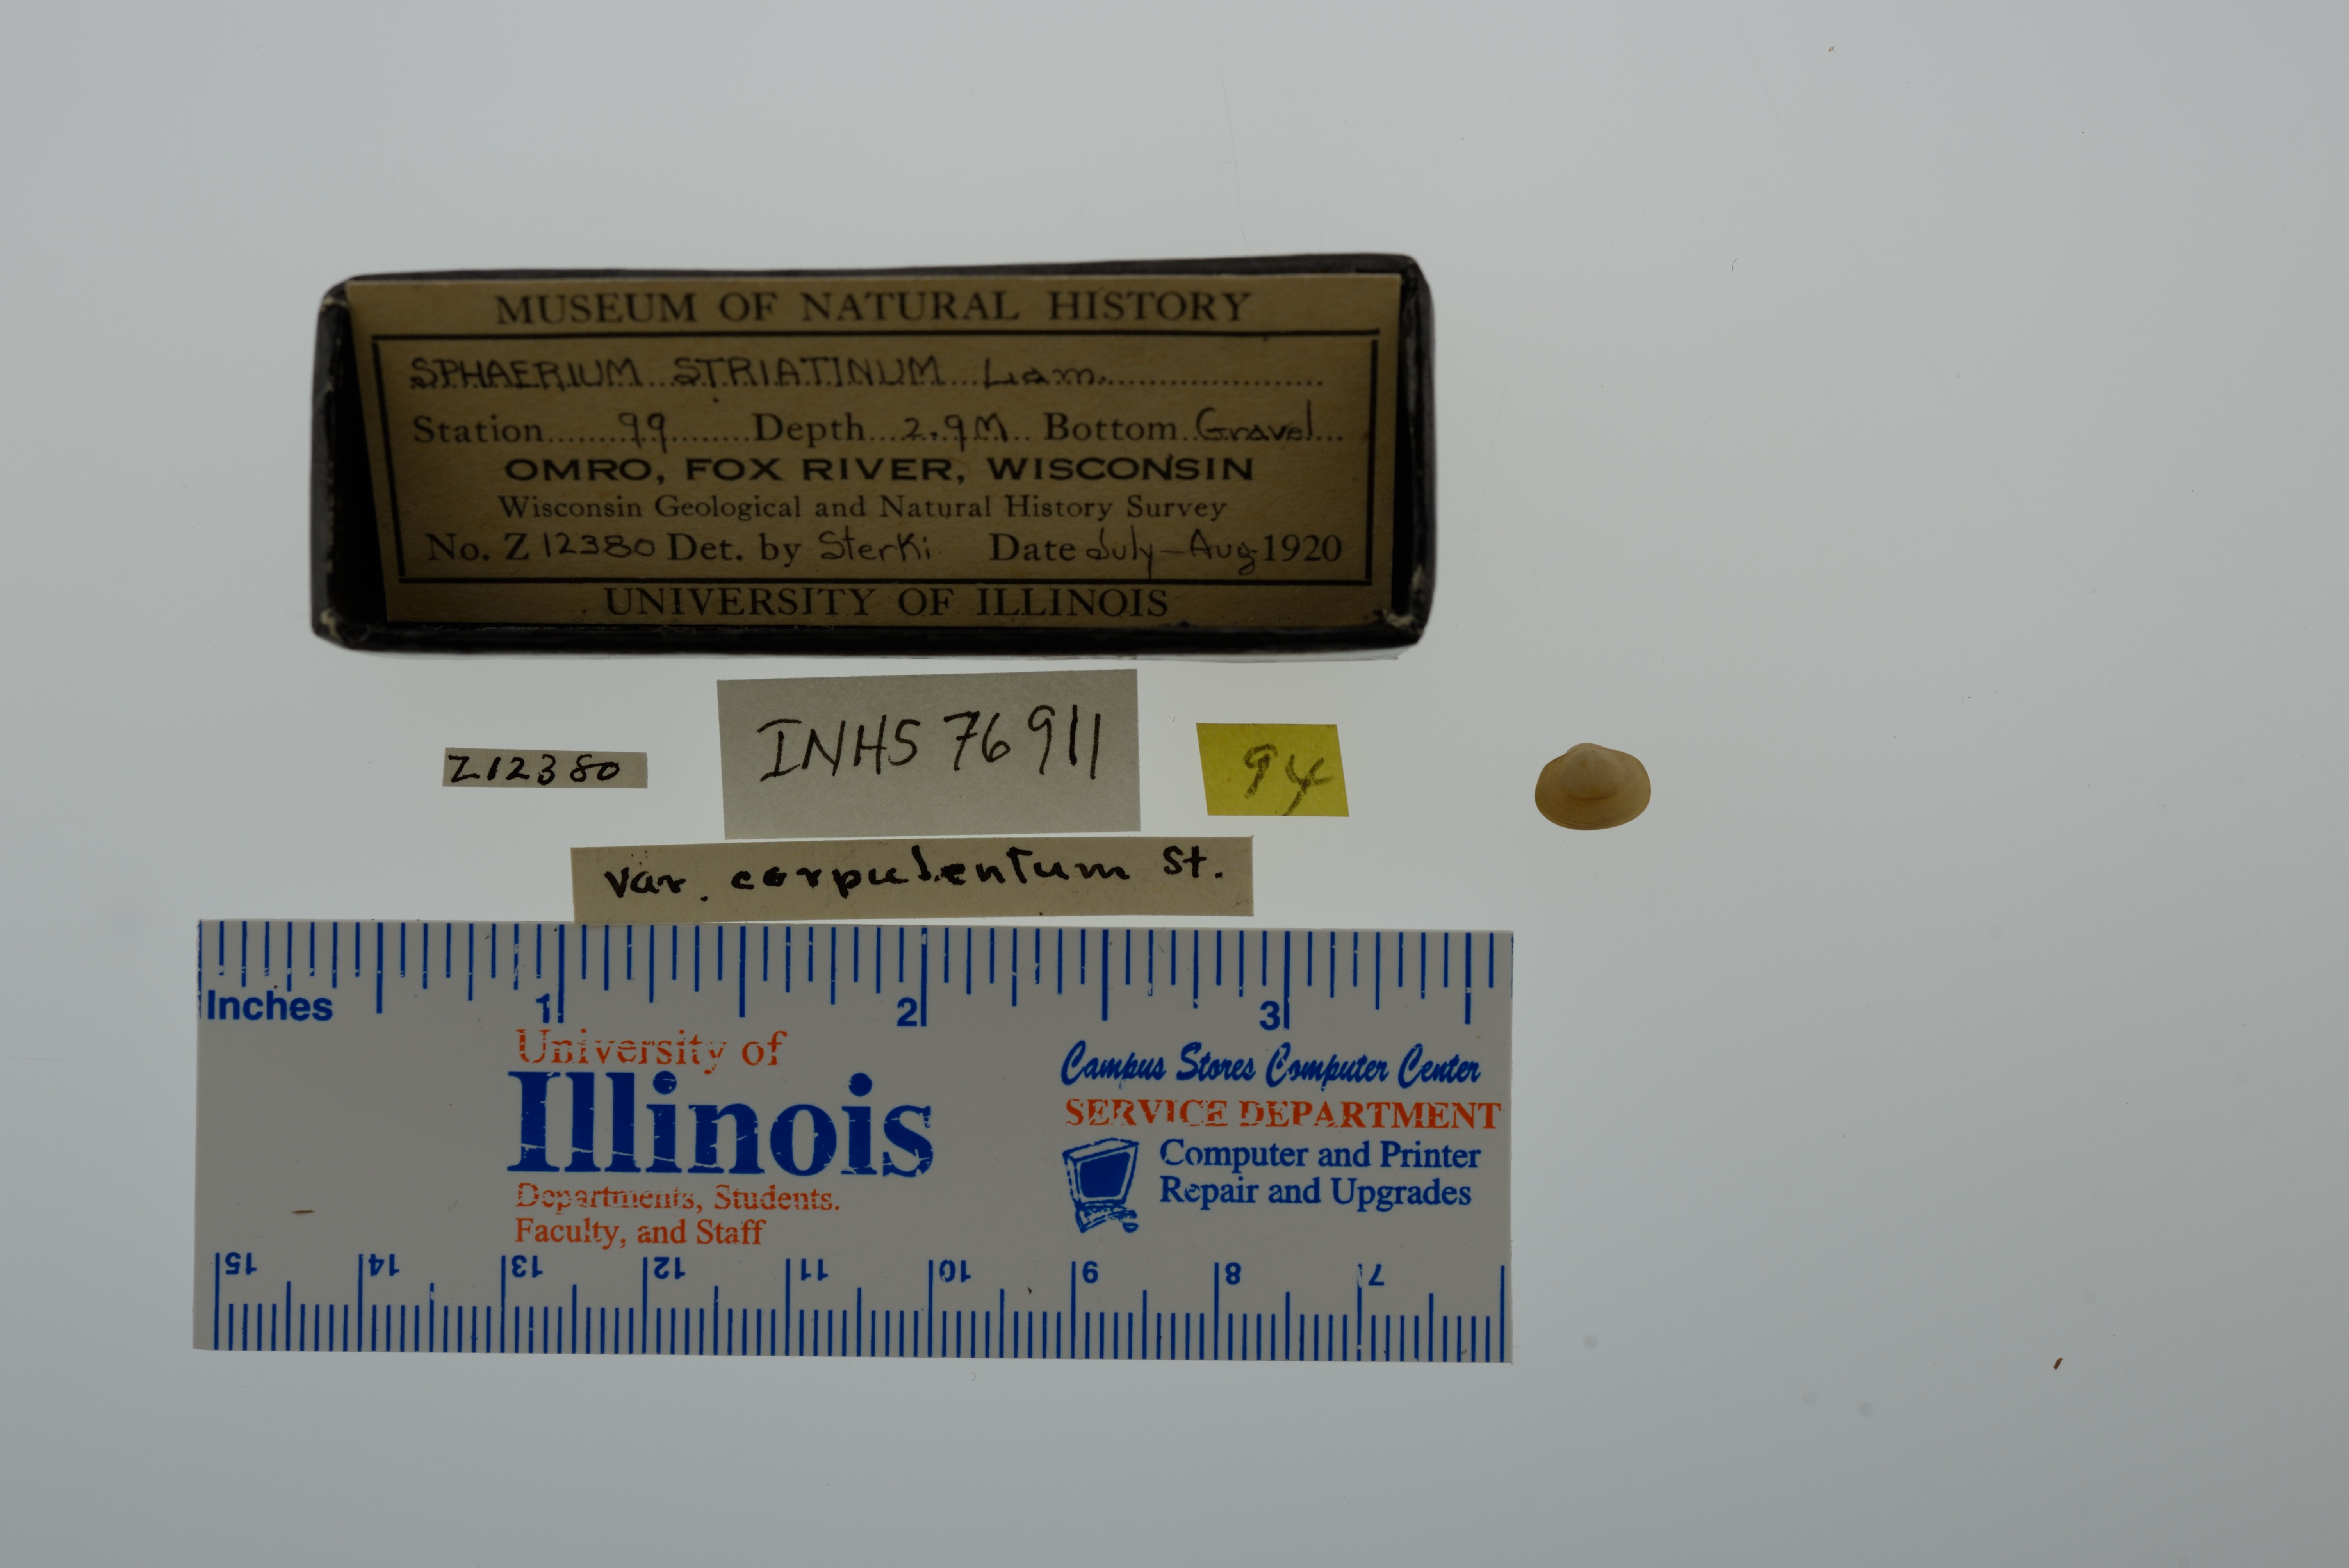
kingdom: Animalia
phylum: Mollusca
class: Bivalvia
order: Sphaeriida
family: Sphaeriidae
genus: Sphaerium
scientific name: Sphaerium striatinum
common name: Striated fingernailclam
